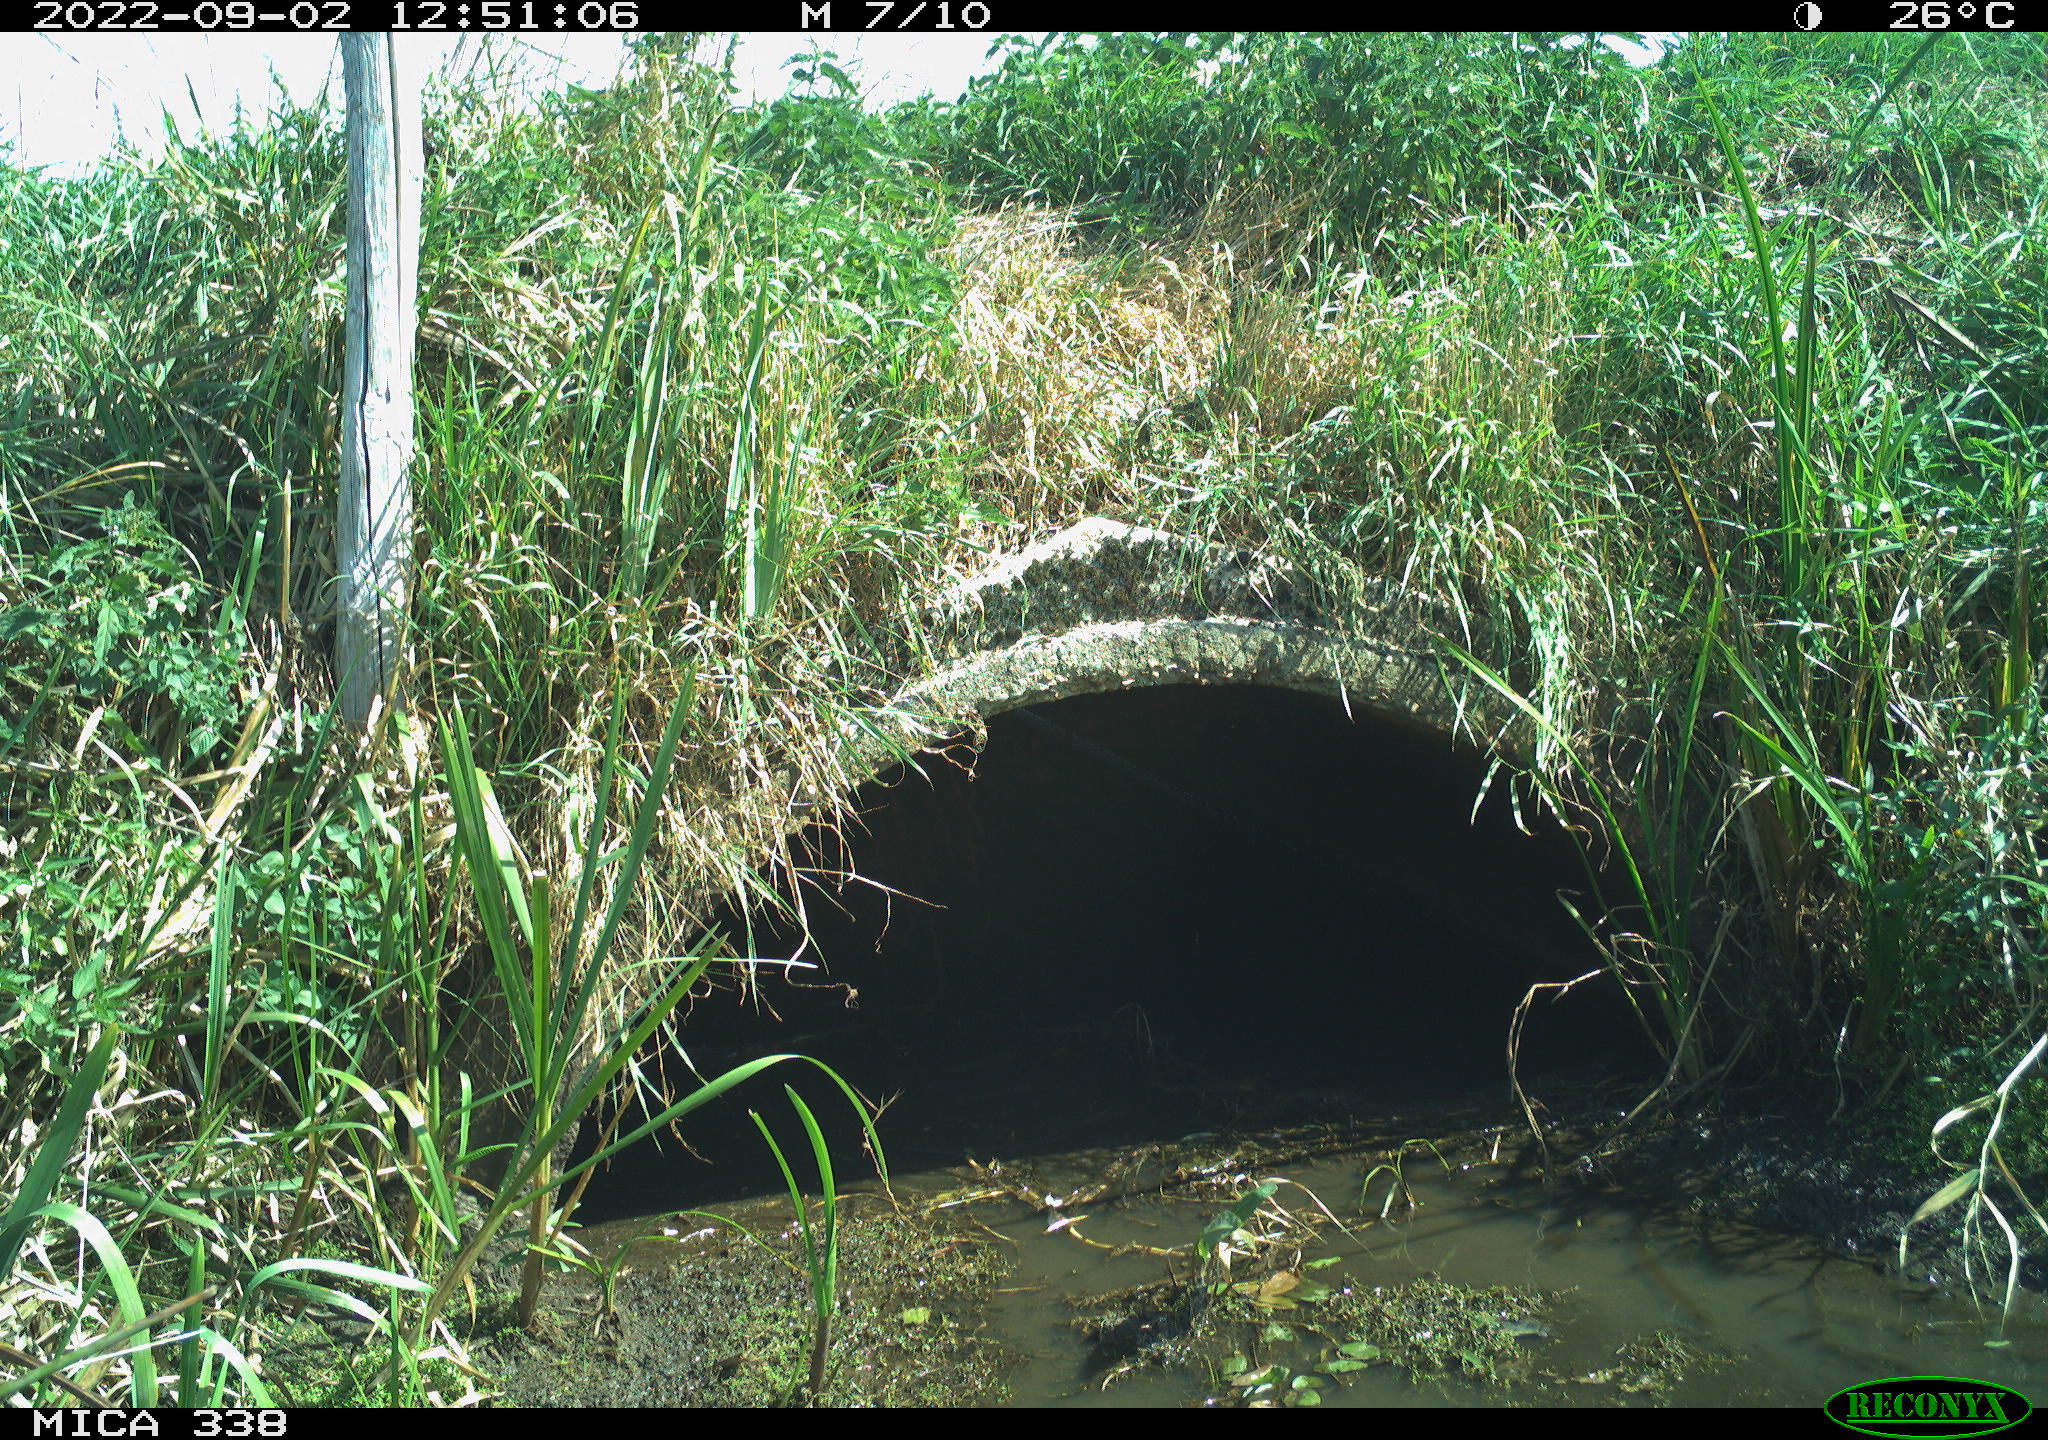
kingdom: Animalia
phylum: Chordata
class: Aves
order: Pelecaniformes
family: Ardeidae
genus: Ardea
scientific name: Ardea
